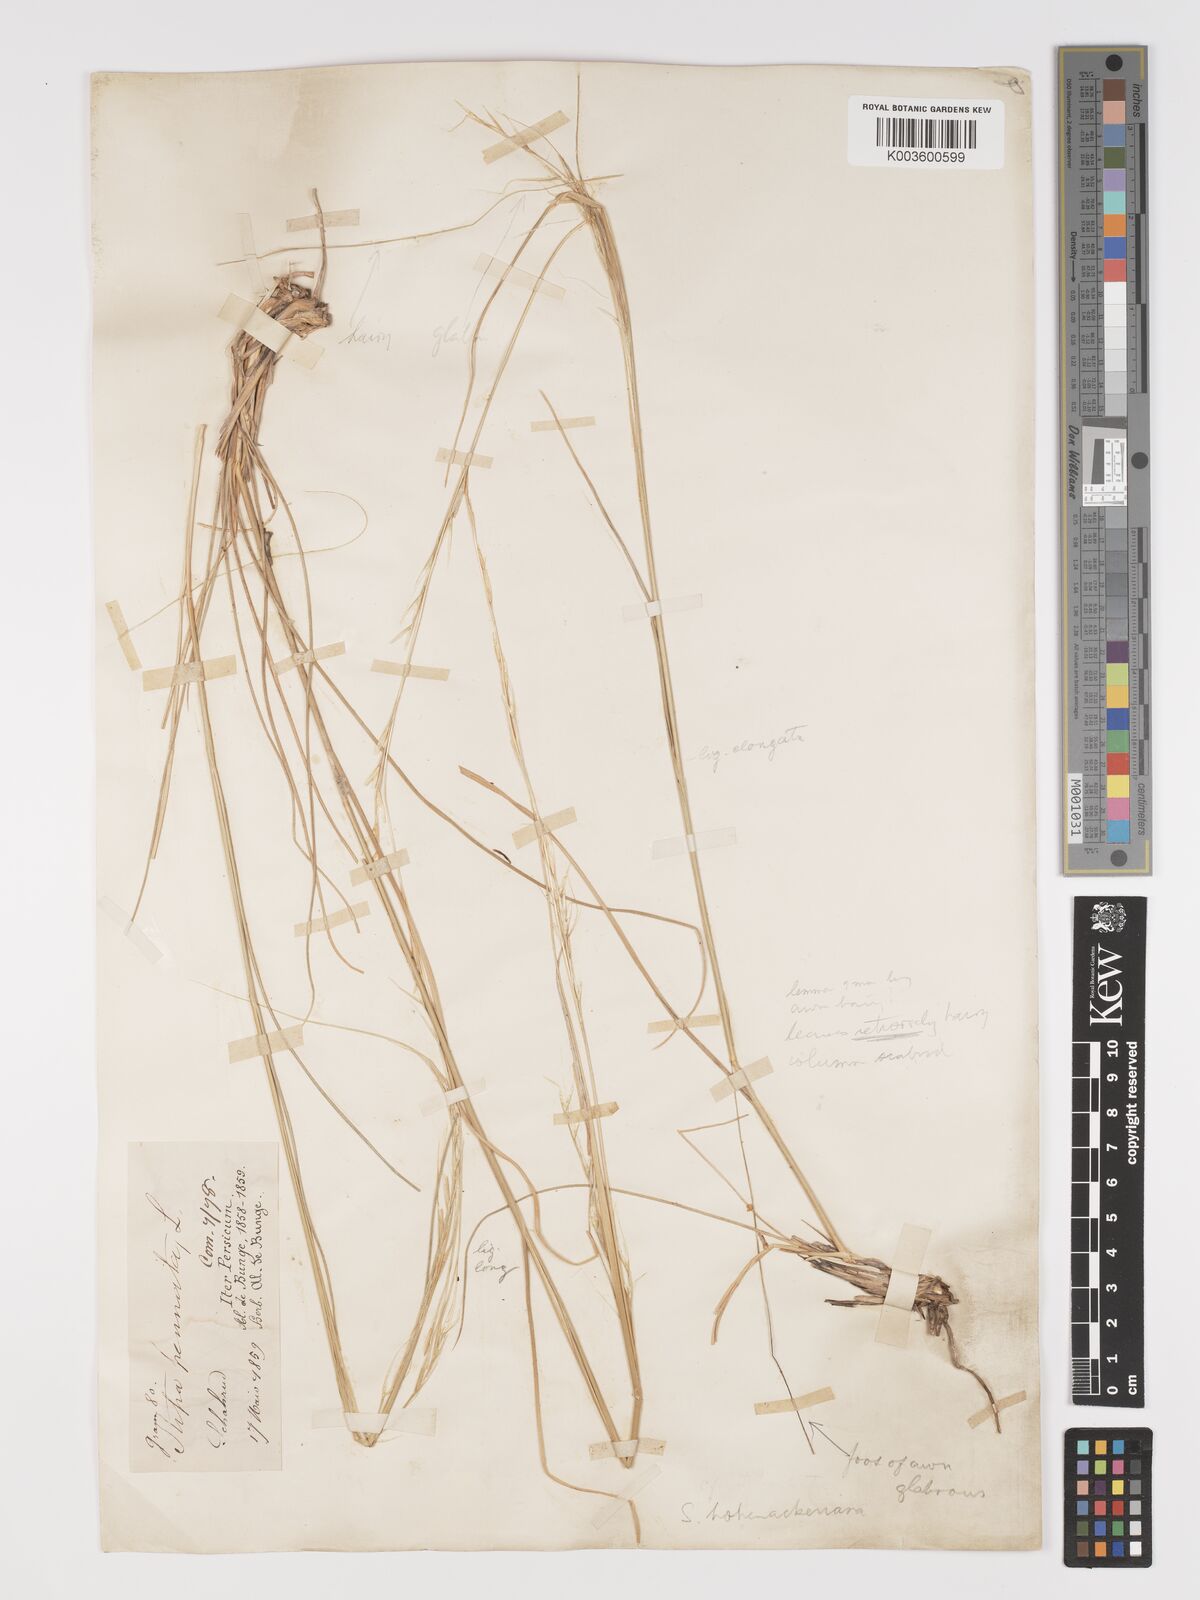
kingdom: Plantae
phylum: Tracheophyta
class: Liliopsida
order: Poales
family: Poaceae
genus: Stipa
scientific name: Stipa barbata
